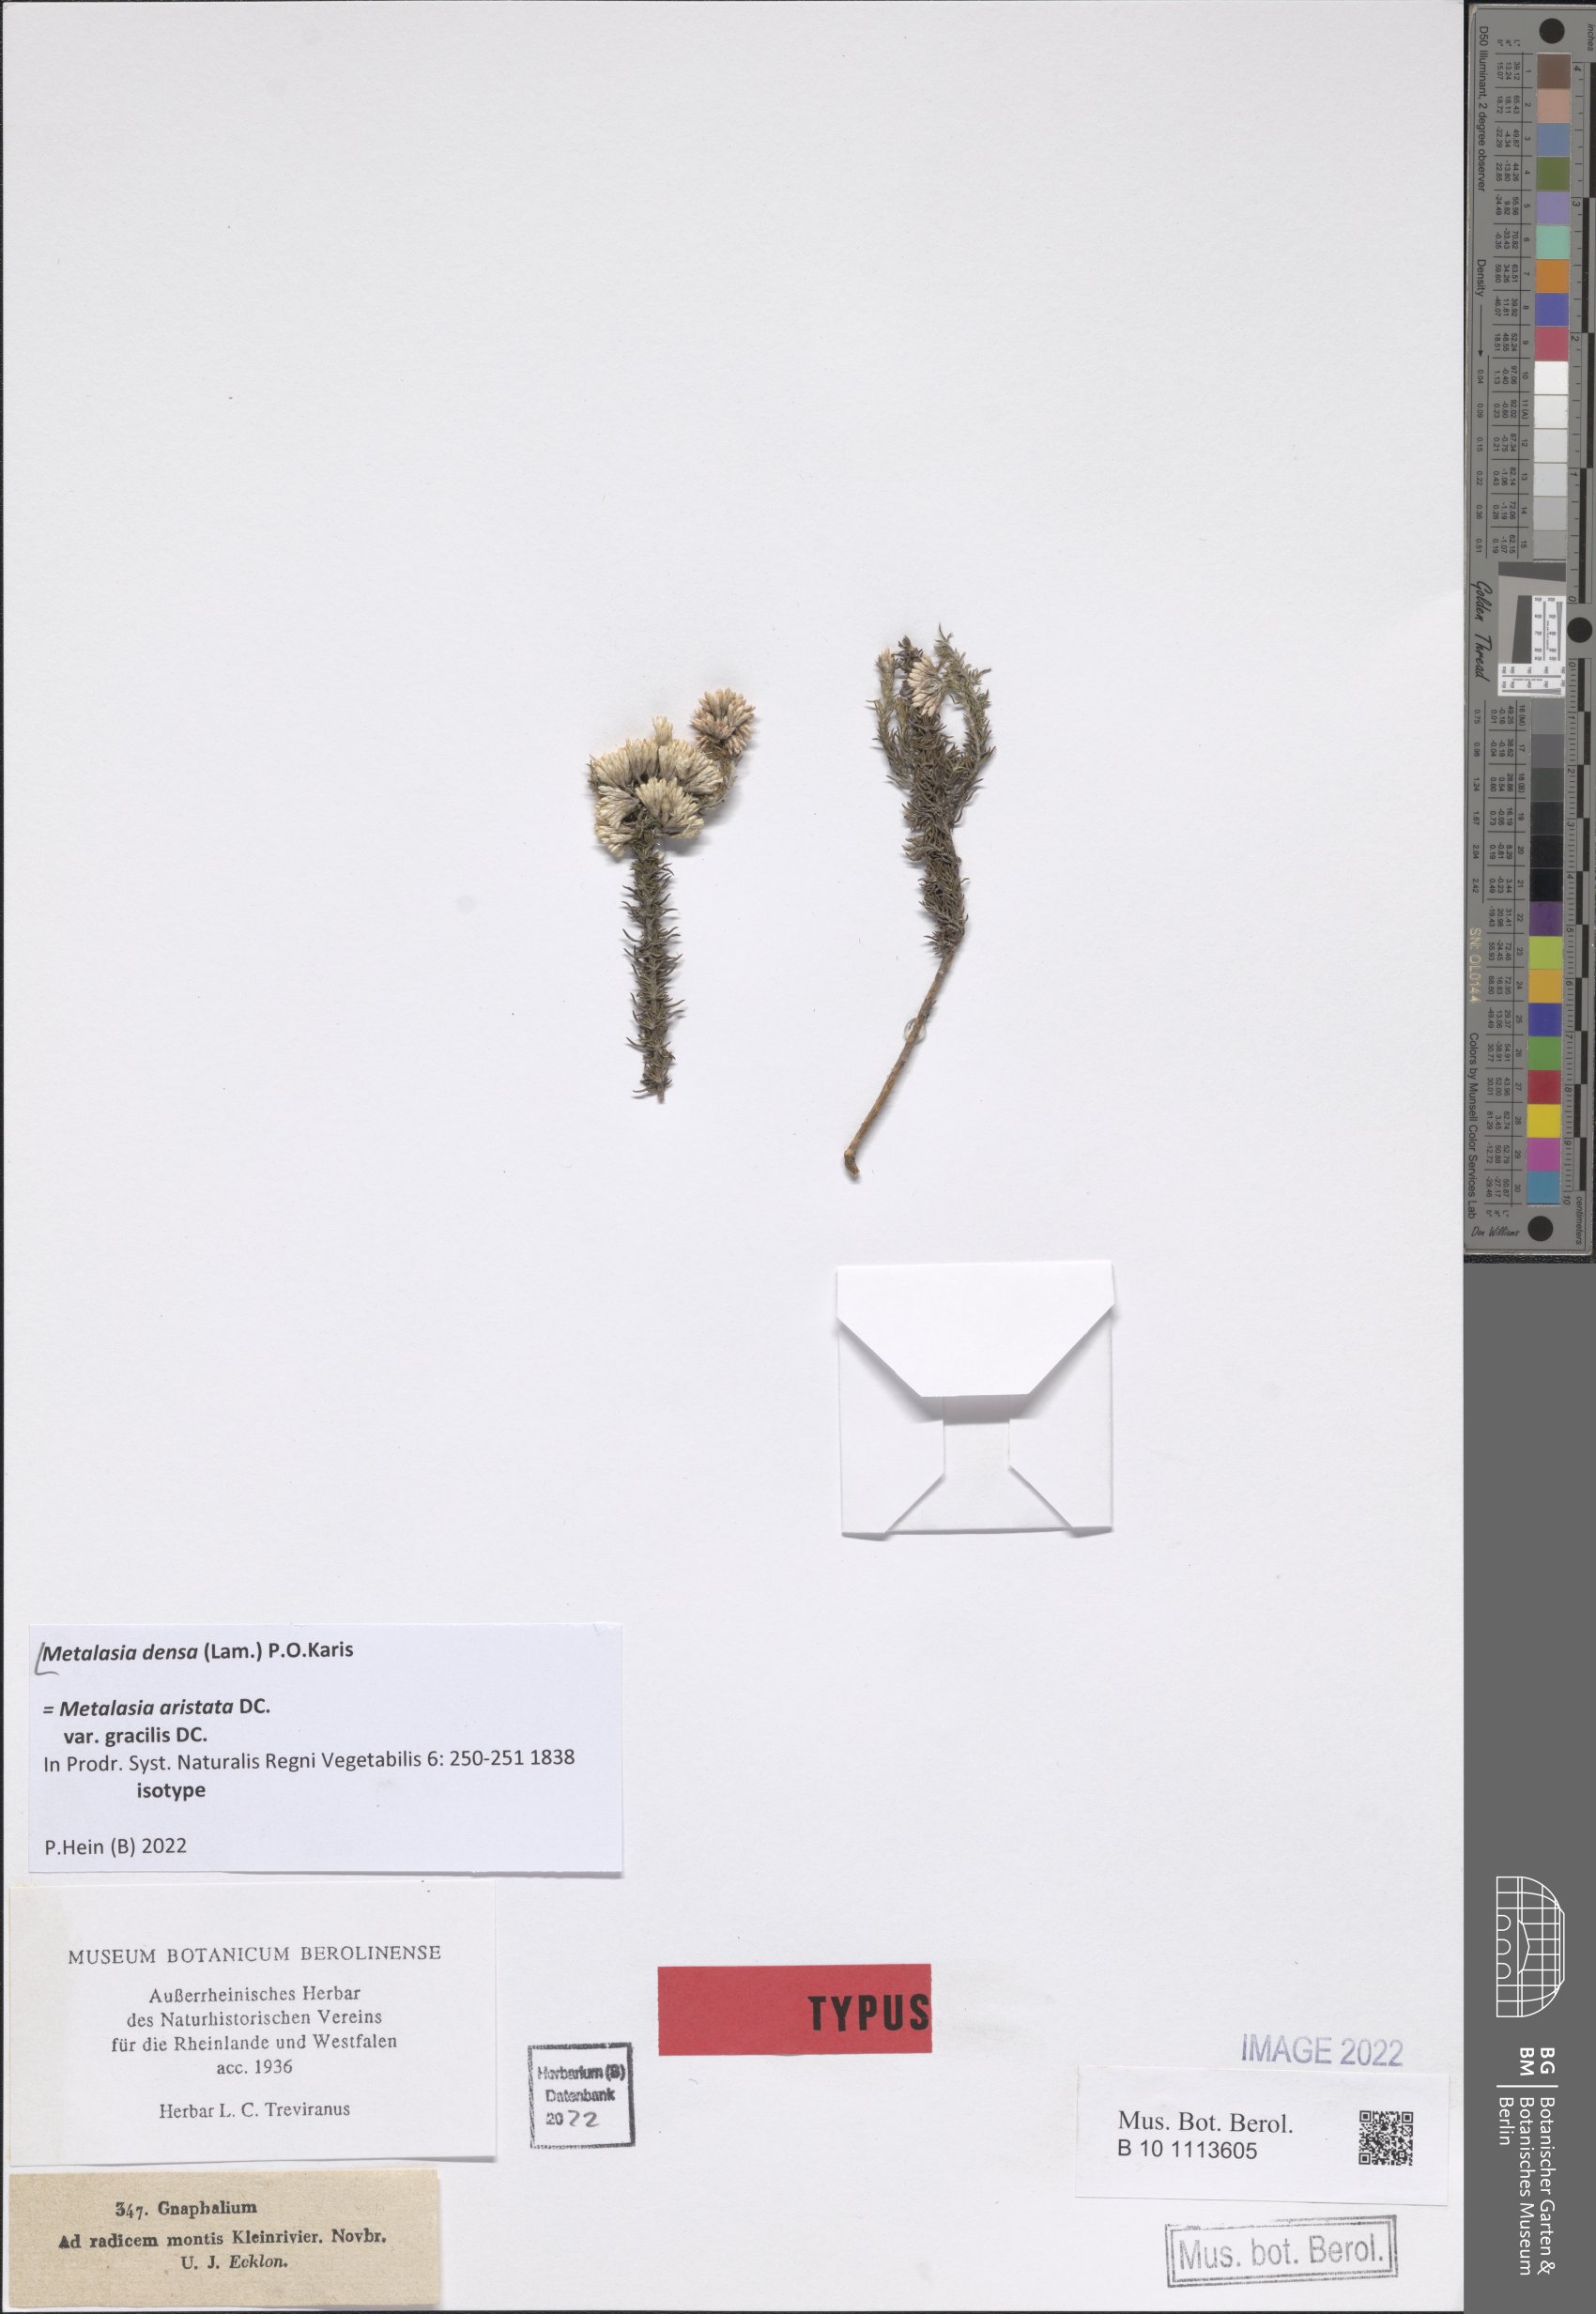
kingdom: Plantae
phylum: Tracheophyta
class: Magnoliopsida
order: Asterales
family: Asteraceae
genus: Metalasia
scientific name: Metalasia densa
